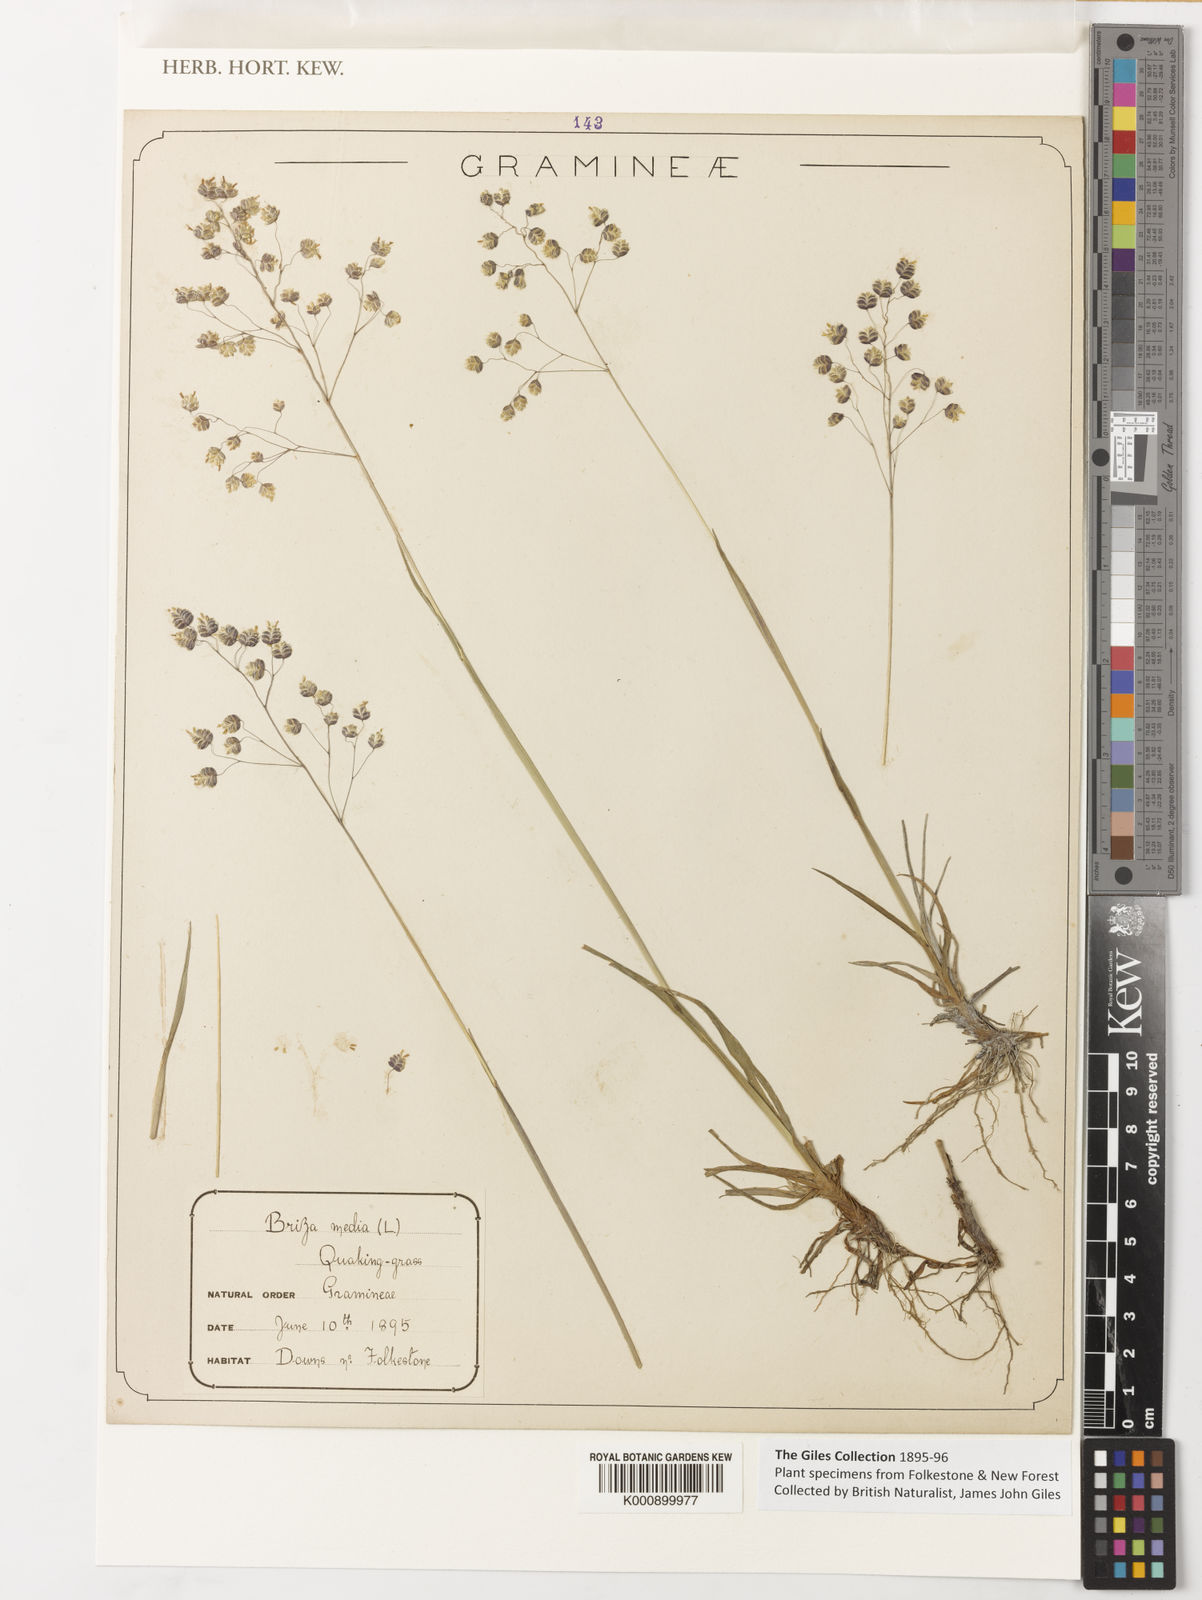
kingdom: Plantae
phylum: Tracheophyta
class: Liliopsida
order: Poales
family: Poaceae
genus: Briza
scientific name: Briza media
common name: Quaking grass
